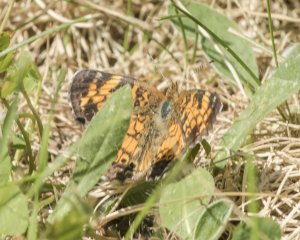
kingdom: Animalia
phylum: Arthropoda
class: Insecta
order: Lepidoptera
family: Nymphalidae
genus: Phyciodes
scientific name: Phyciodes tharos
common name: Northern Crescent
